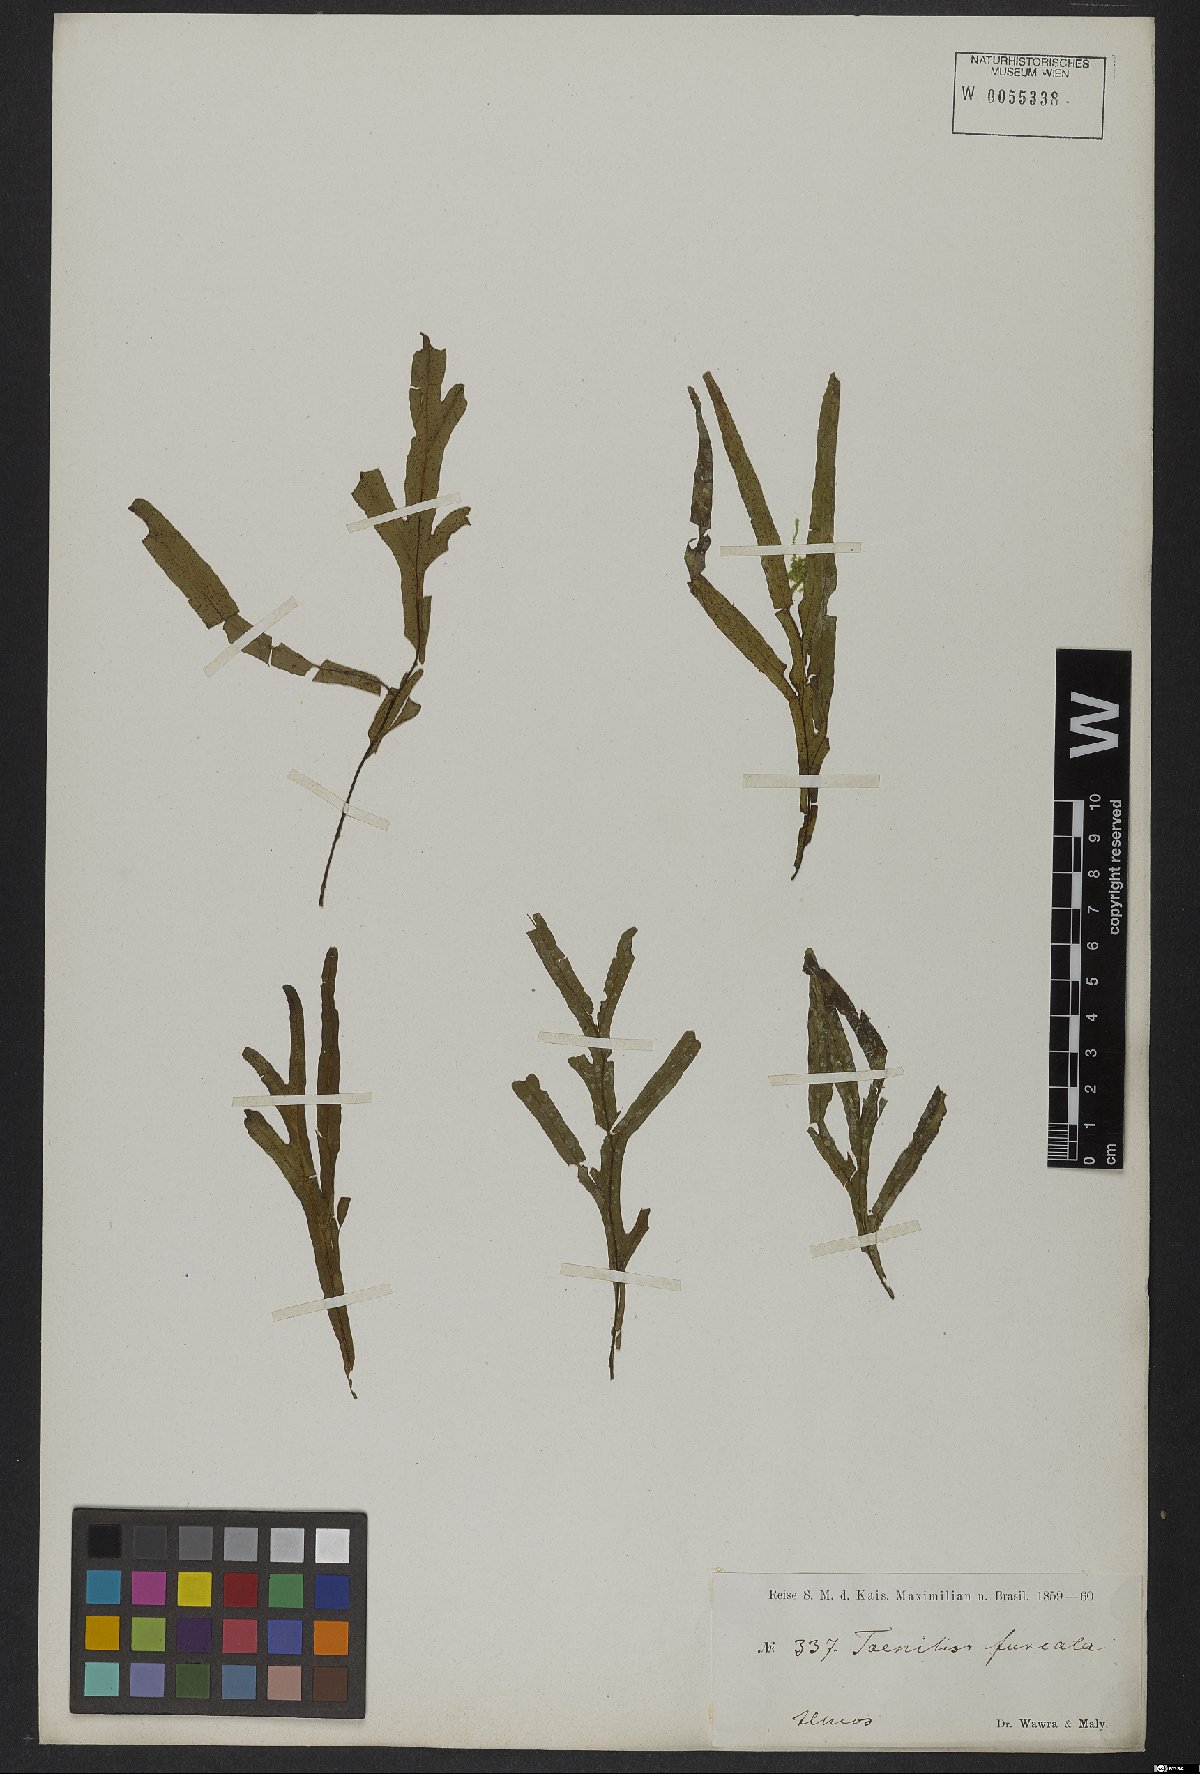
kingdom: Plantae
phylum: Tracheophyta
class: Polypodiopsida
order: Polypodiales
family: Thelypteridaceae
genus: Christella
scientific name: Christella parasitica
